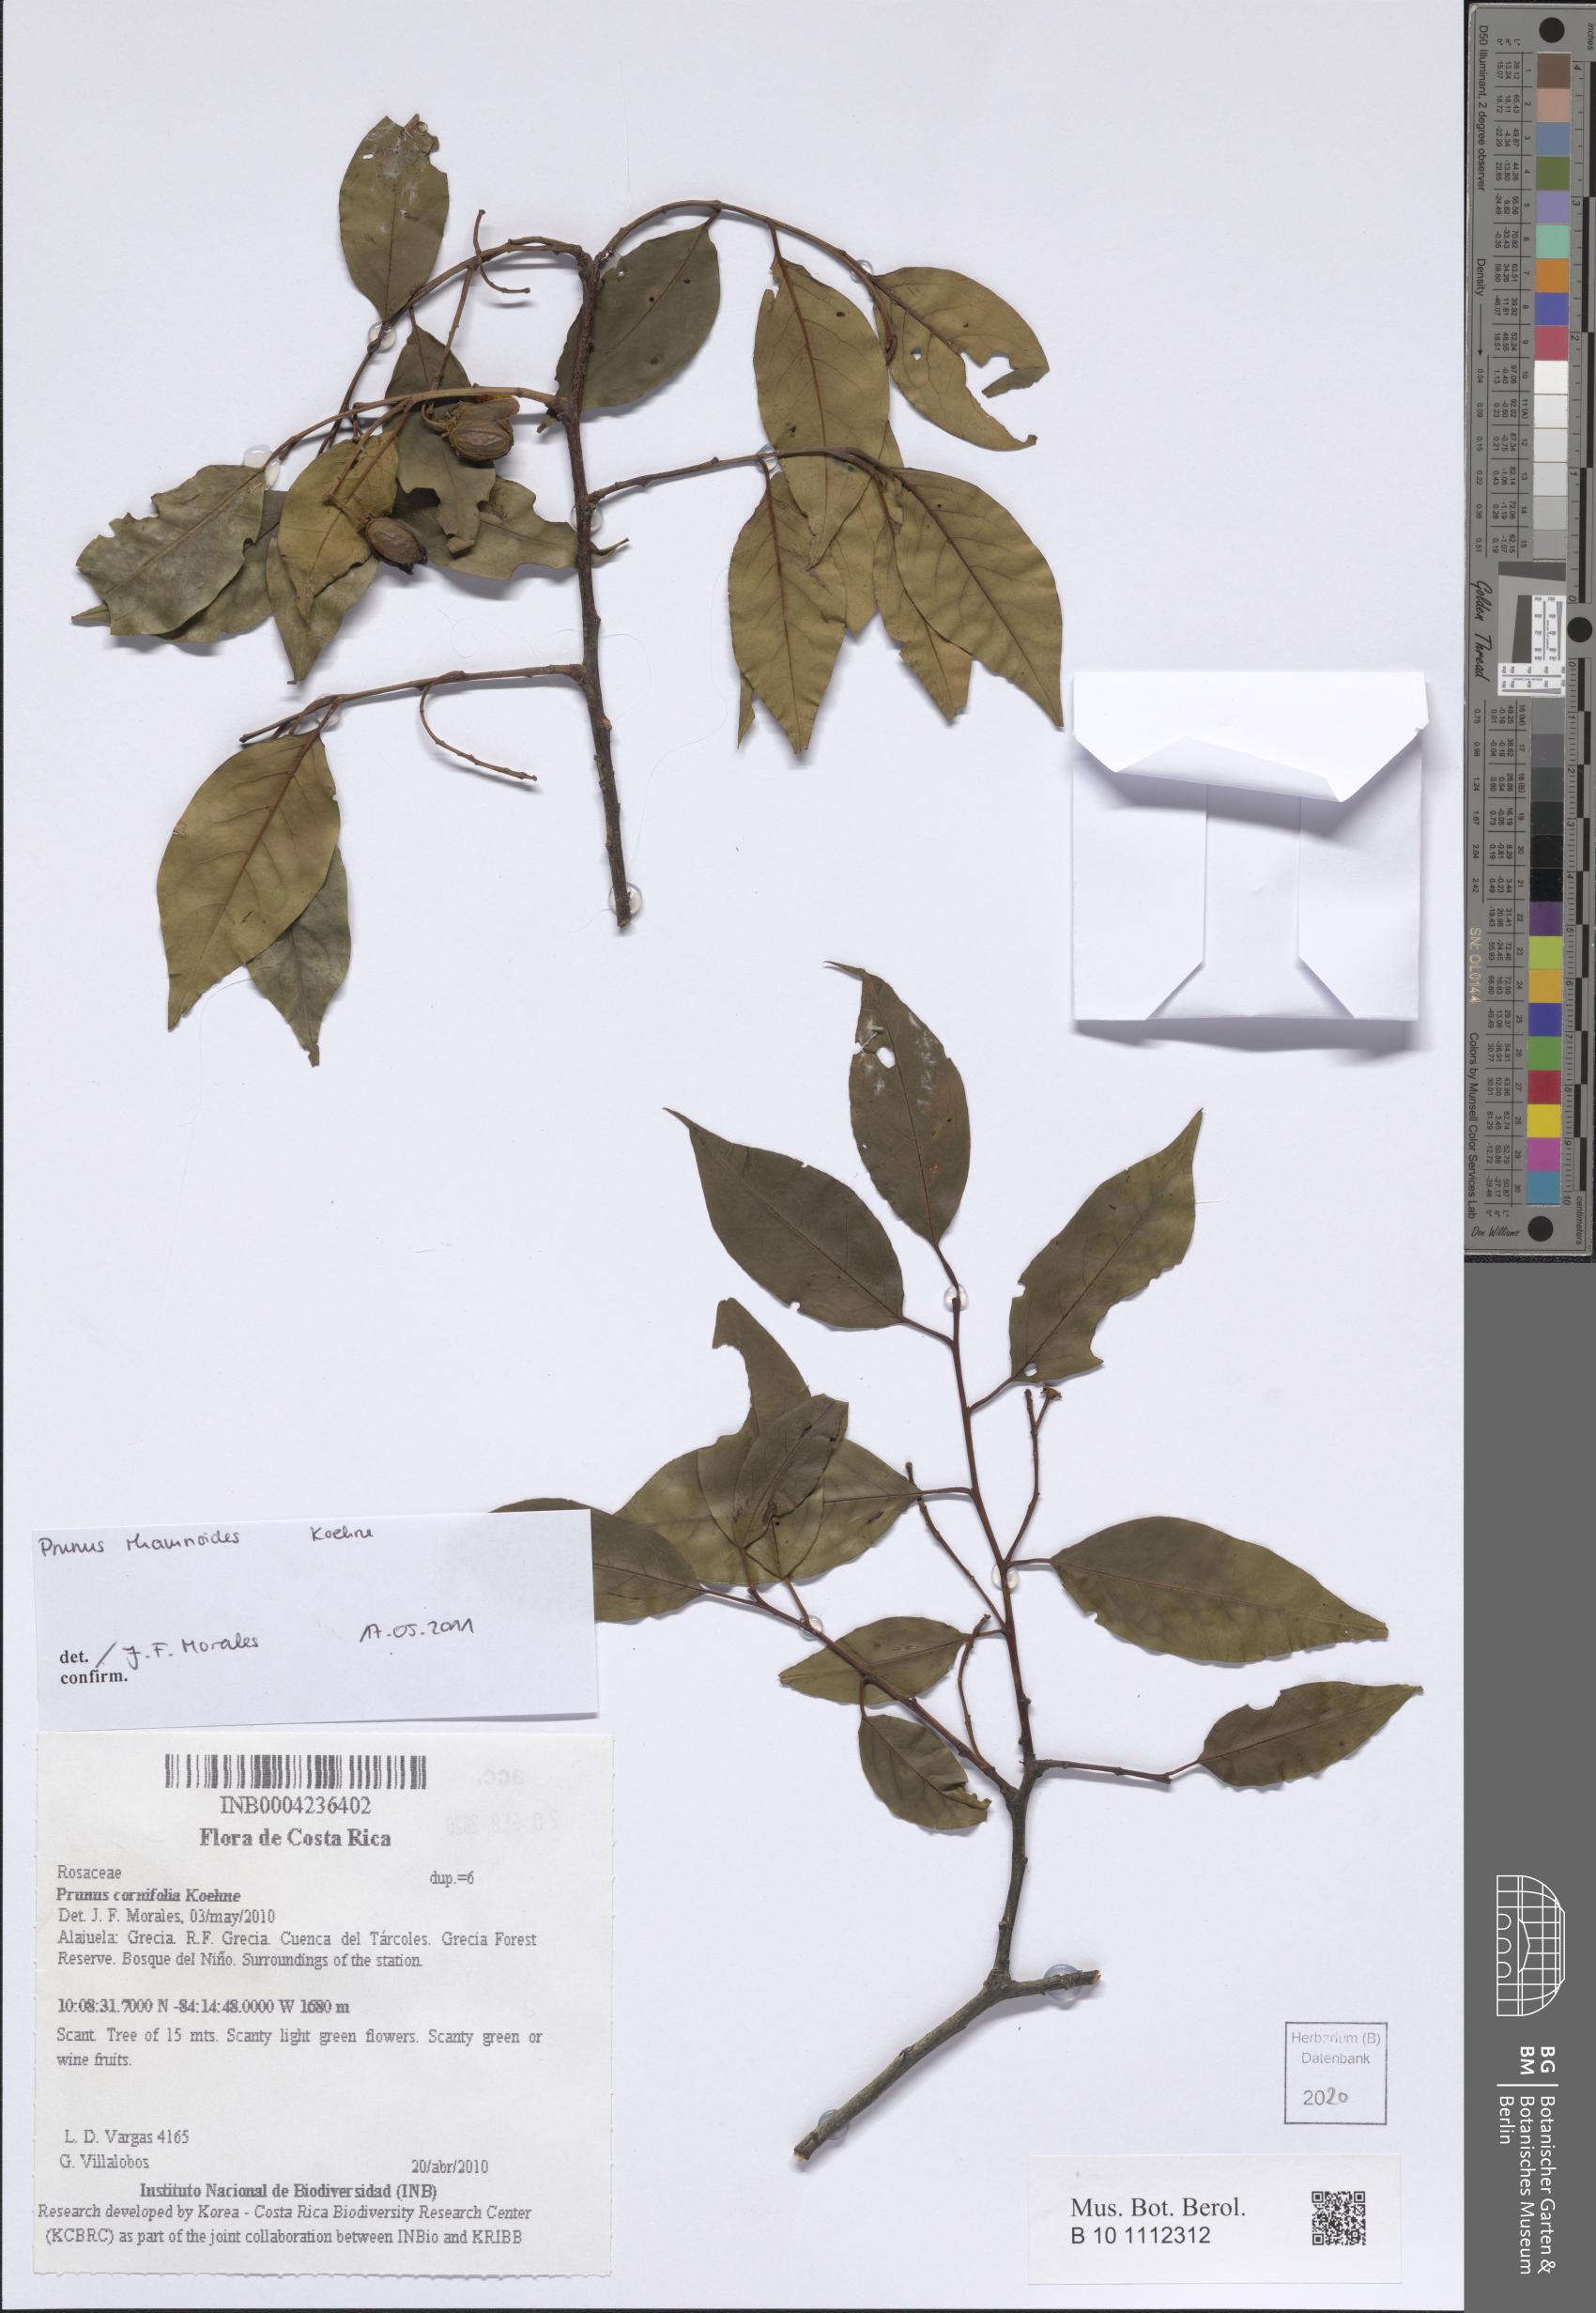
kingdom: Plantae
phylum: Tracheophyta
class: Magnoliopsida
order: Rosales
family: Rosaceae
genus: Prunus
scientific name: Prunus rhamnoides
